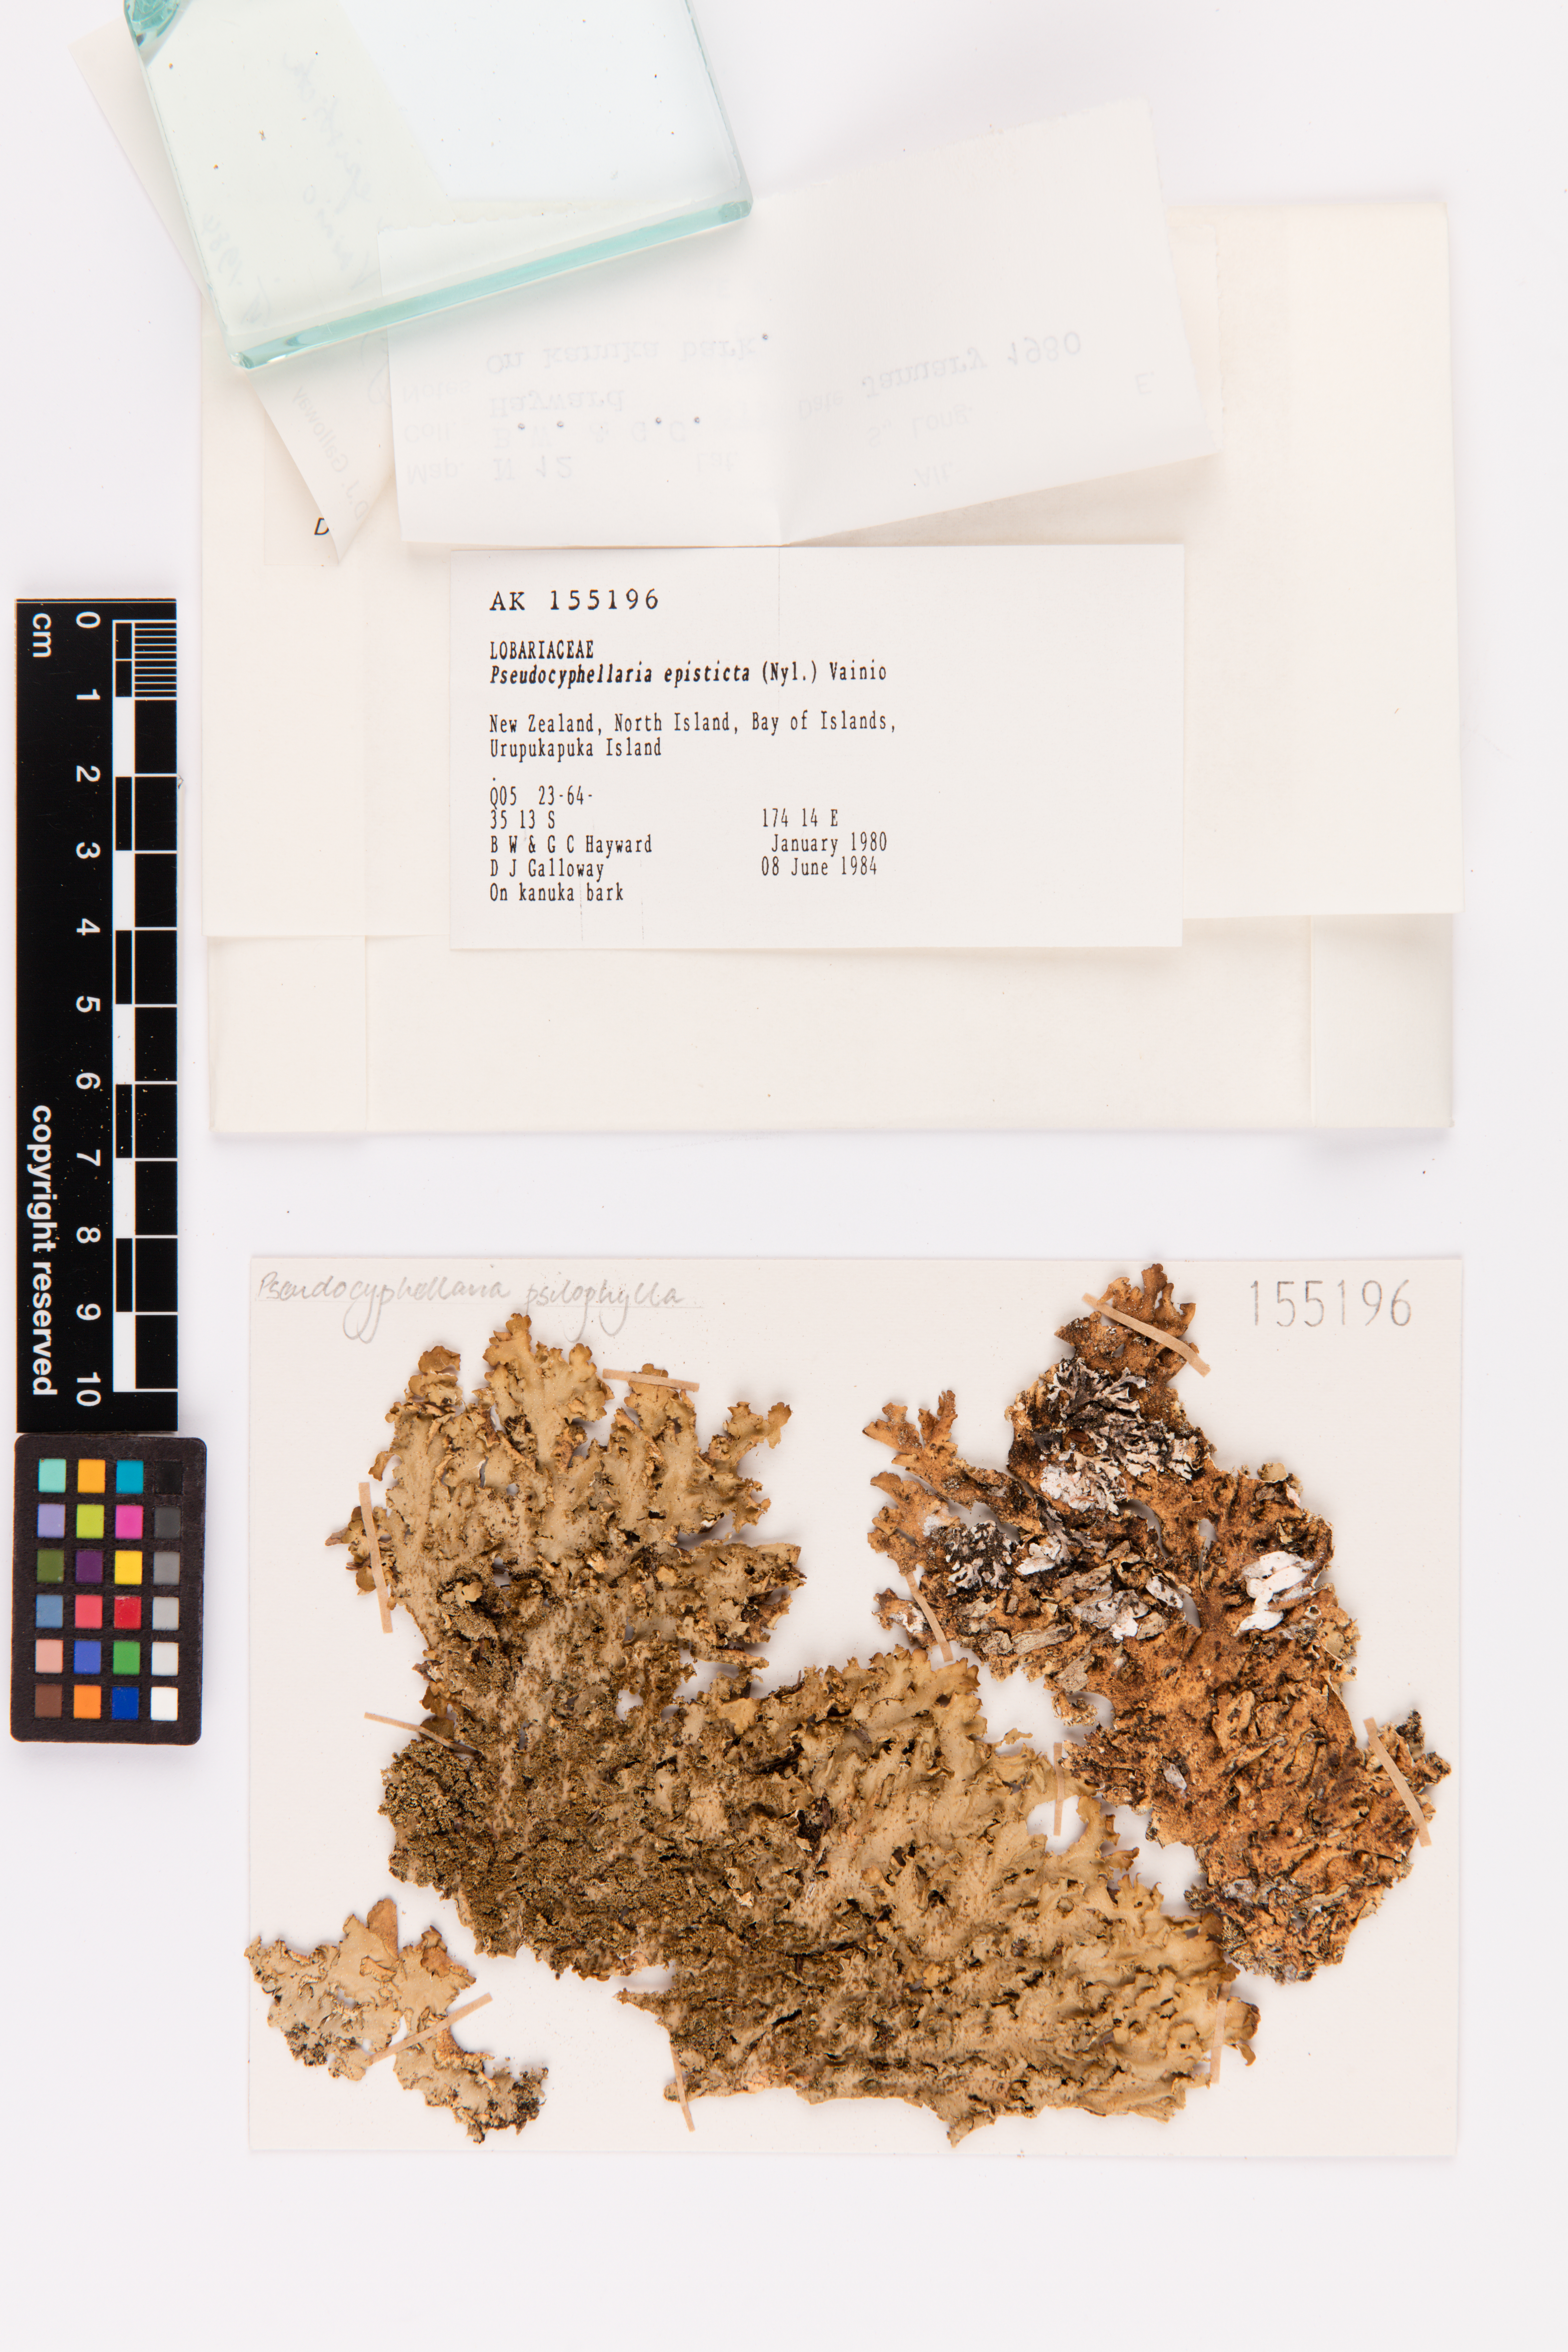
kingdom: Fungi
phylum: Ascomycota
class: Lecanoromycetes
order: Peltigerales
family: Lobariaceae
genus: Pseudocyphellaria
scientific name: Pseudocyphellaria episticta
